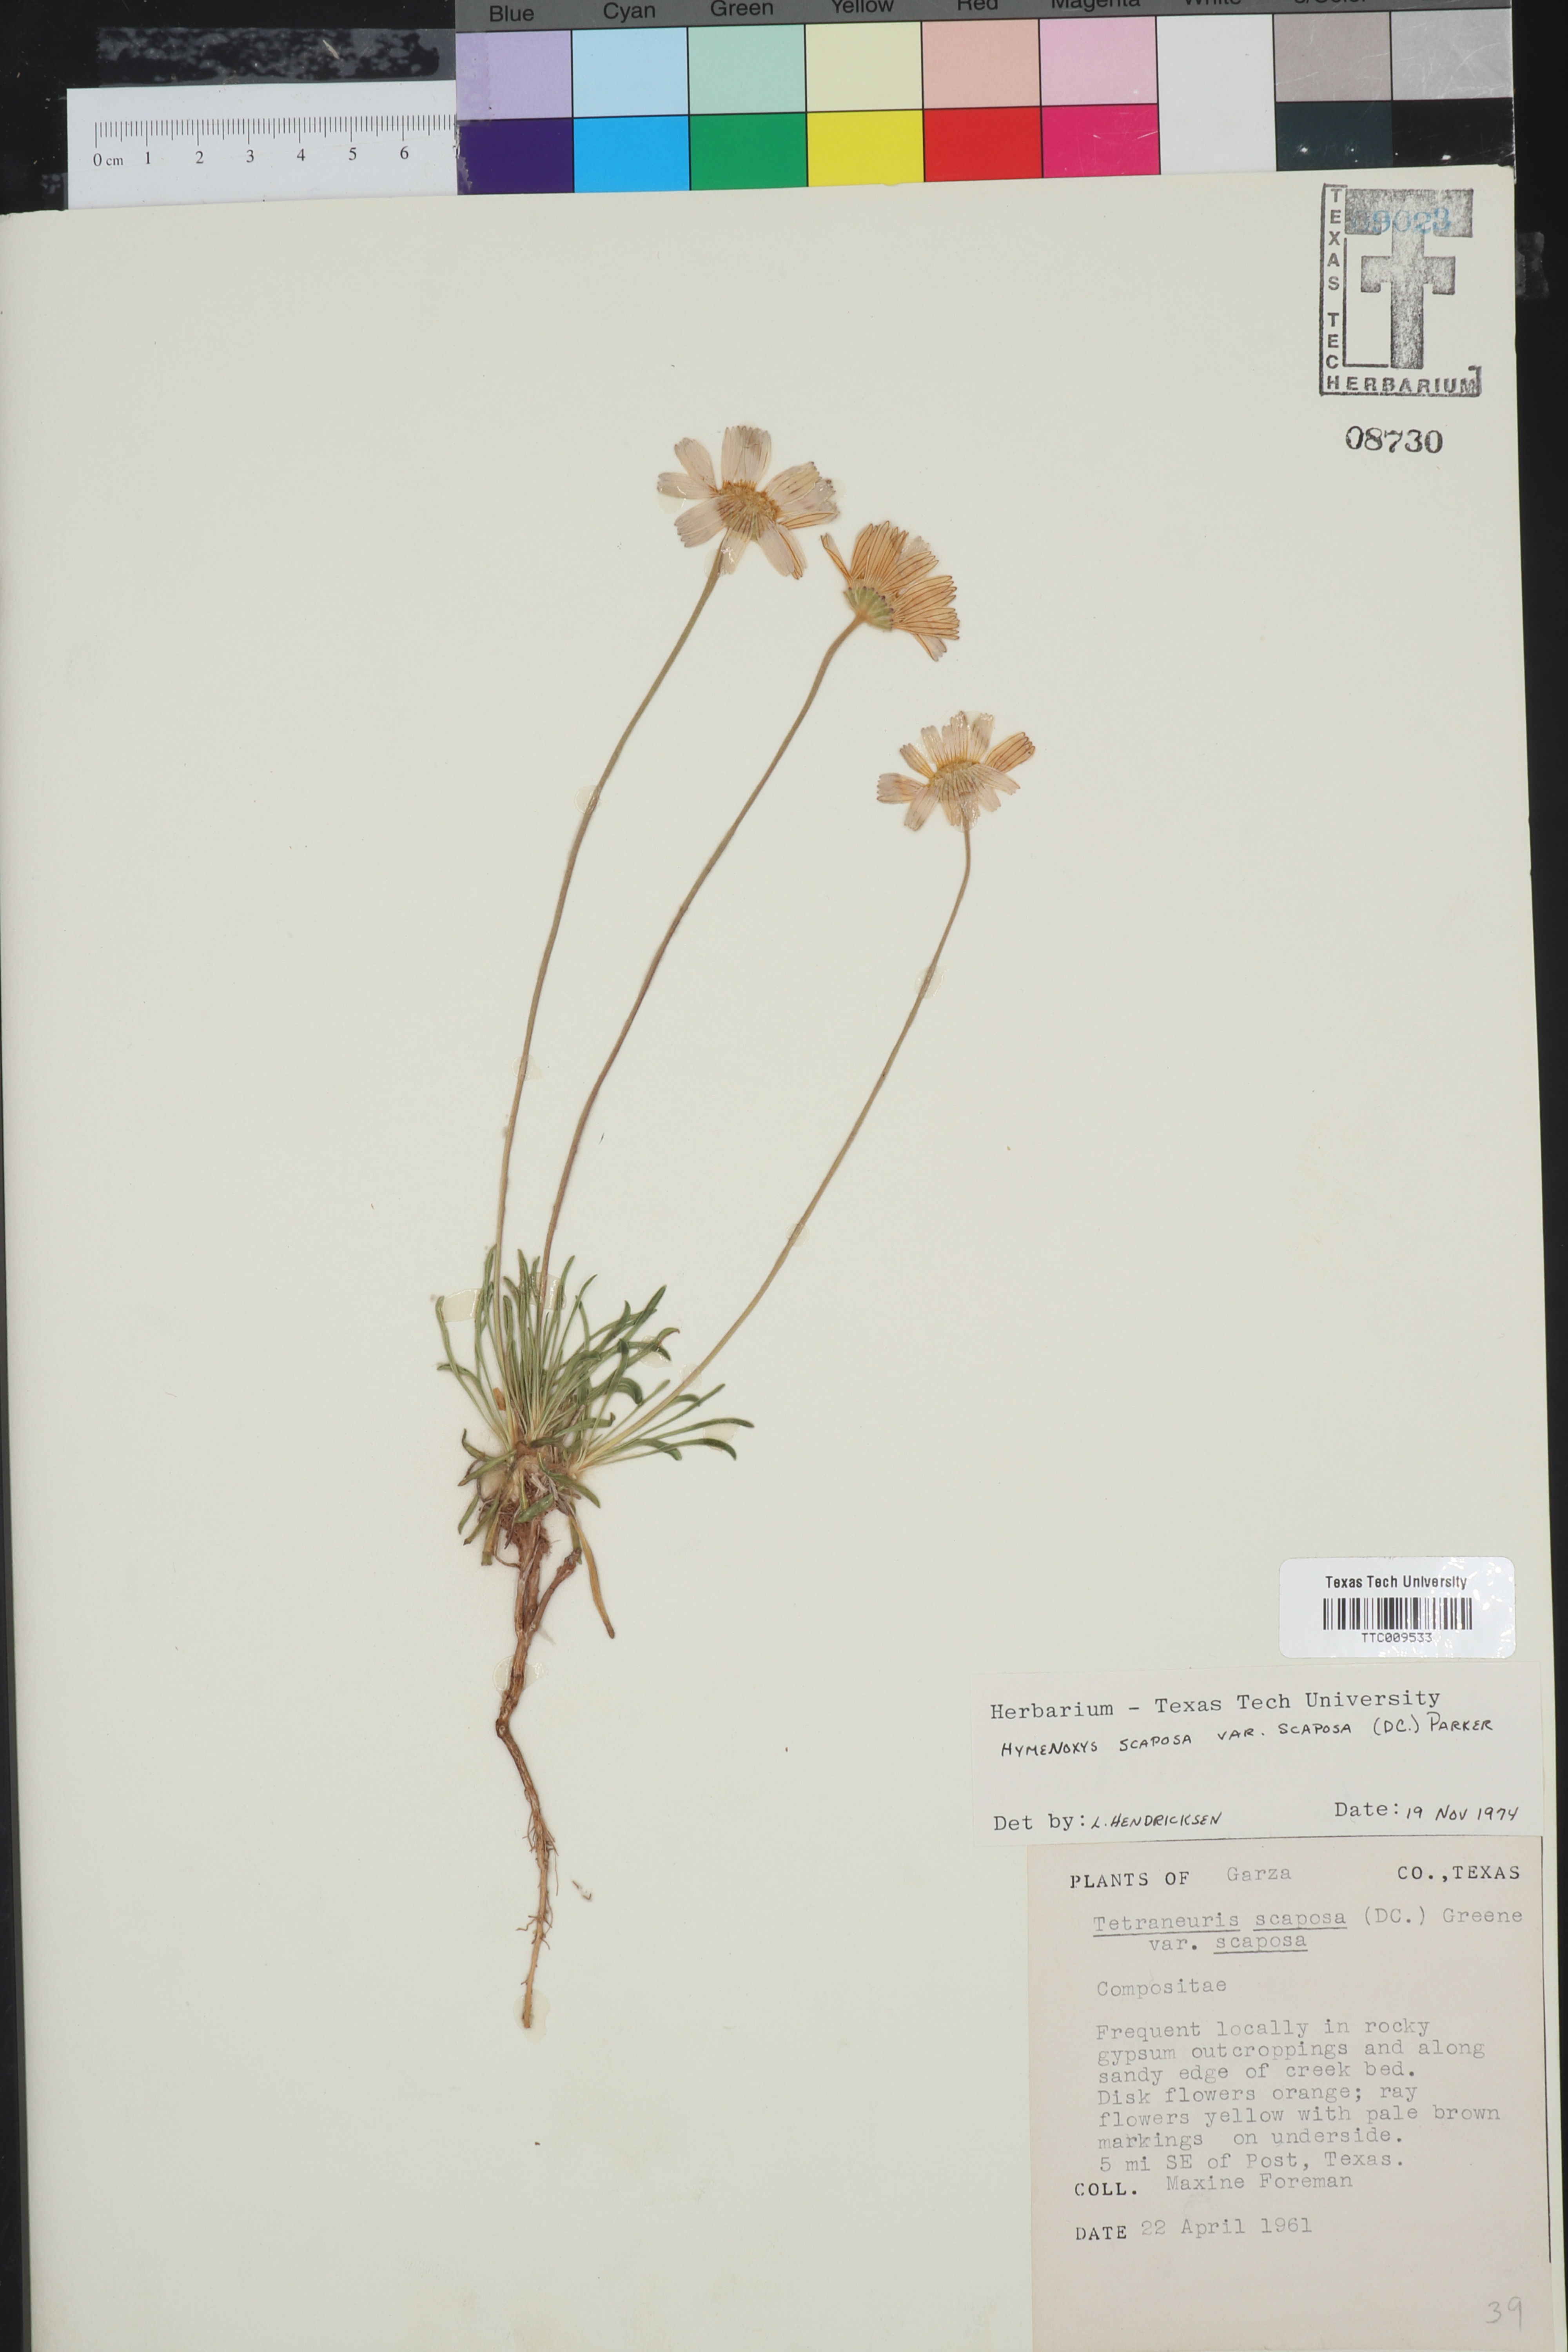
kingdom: Plantae
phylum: Tracheophyta
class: Magnoliopsida
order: Asterales
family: Asteraceae
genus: Tetraneuris
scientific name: Tetraneuris scaposa
